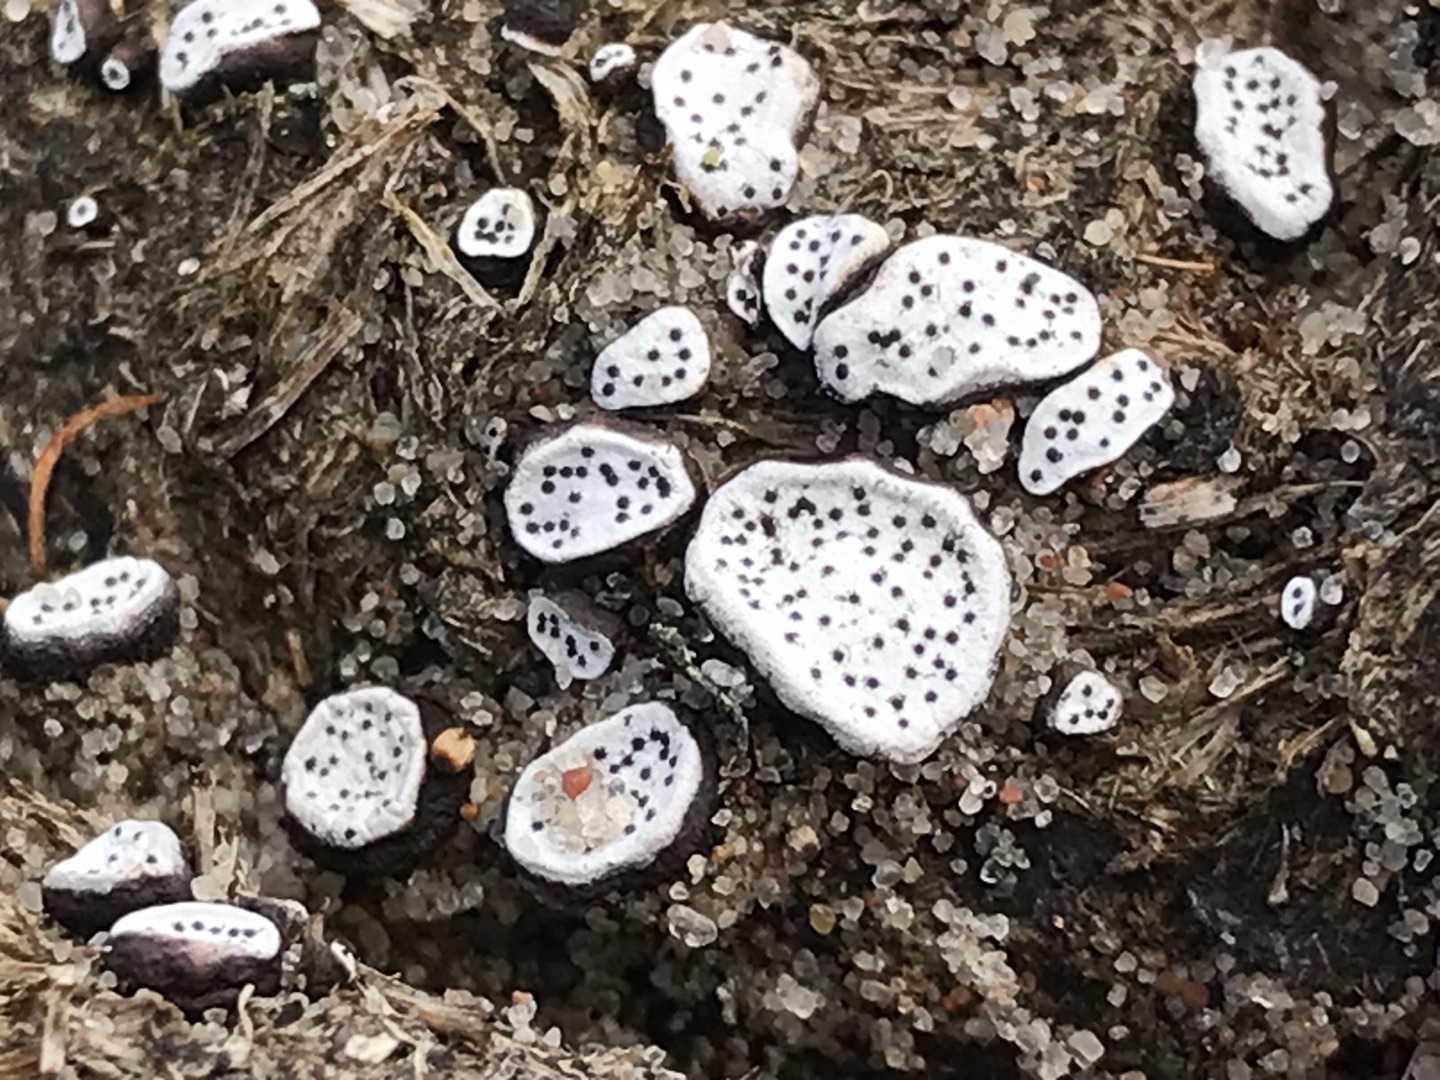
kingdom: Fungi
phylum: Ascomycota
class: Sordariomycetes
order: Xylariales
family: Xylariaceae
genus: Poronia
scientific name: Poronia punctata
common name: Stor priksvamp
